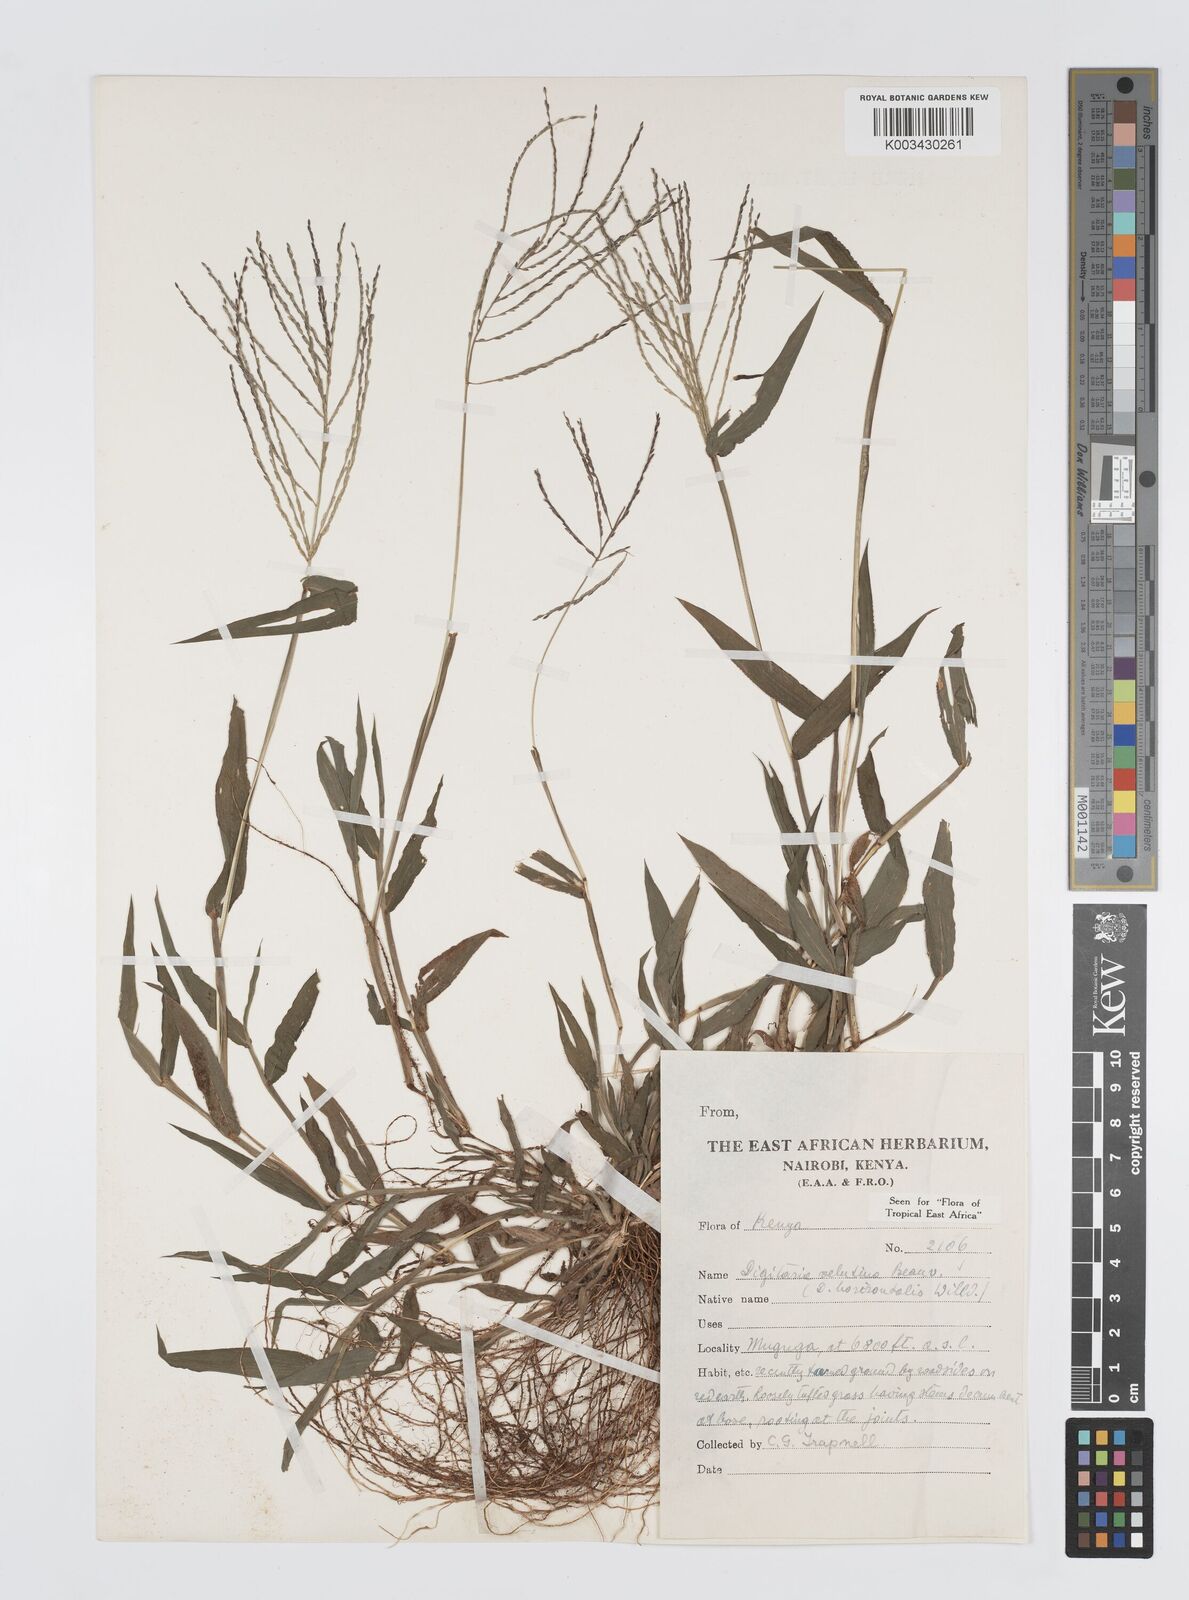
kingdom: Plantae
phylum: Tracheophyta
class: Liliopsida
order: Poales
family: Poaceae
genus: Digitaria
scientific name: Digitaria velutina
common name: Long-plume finger grass
